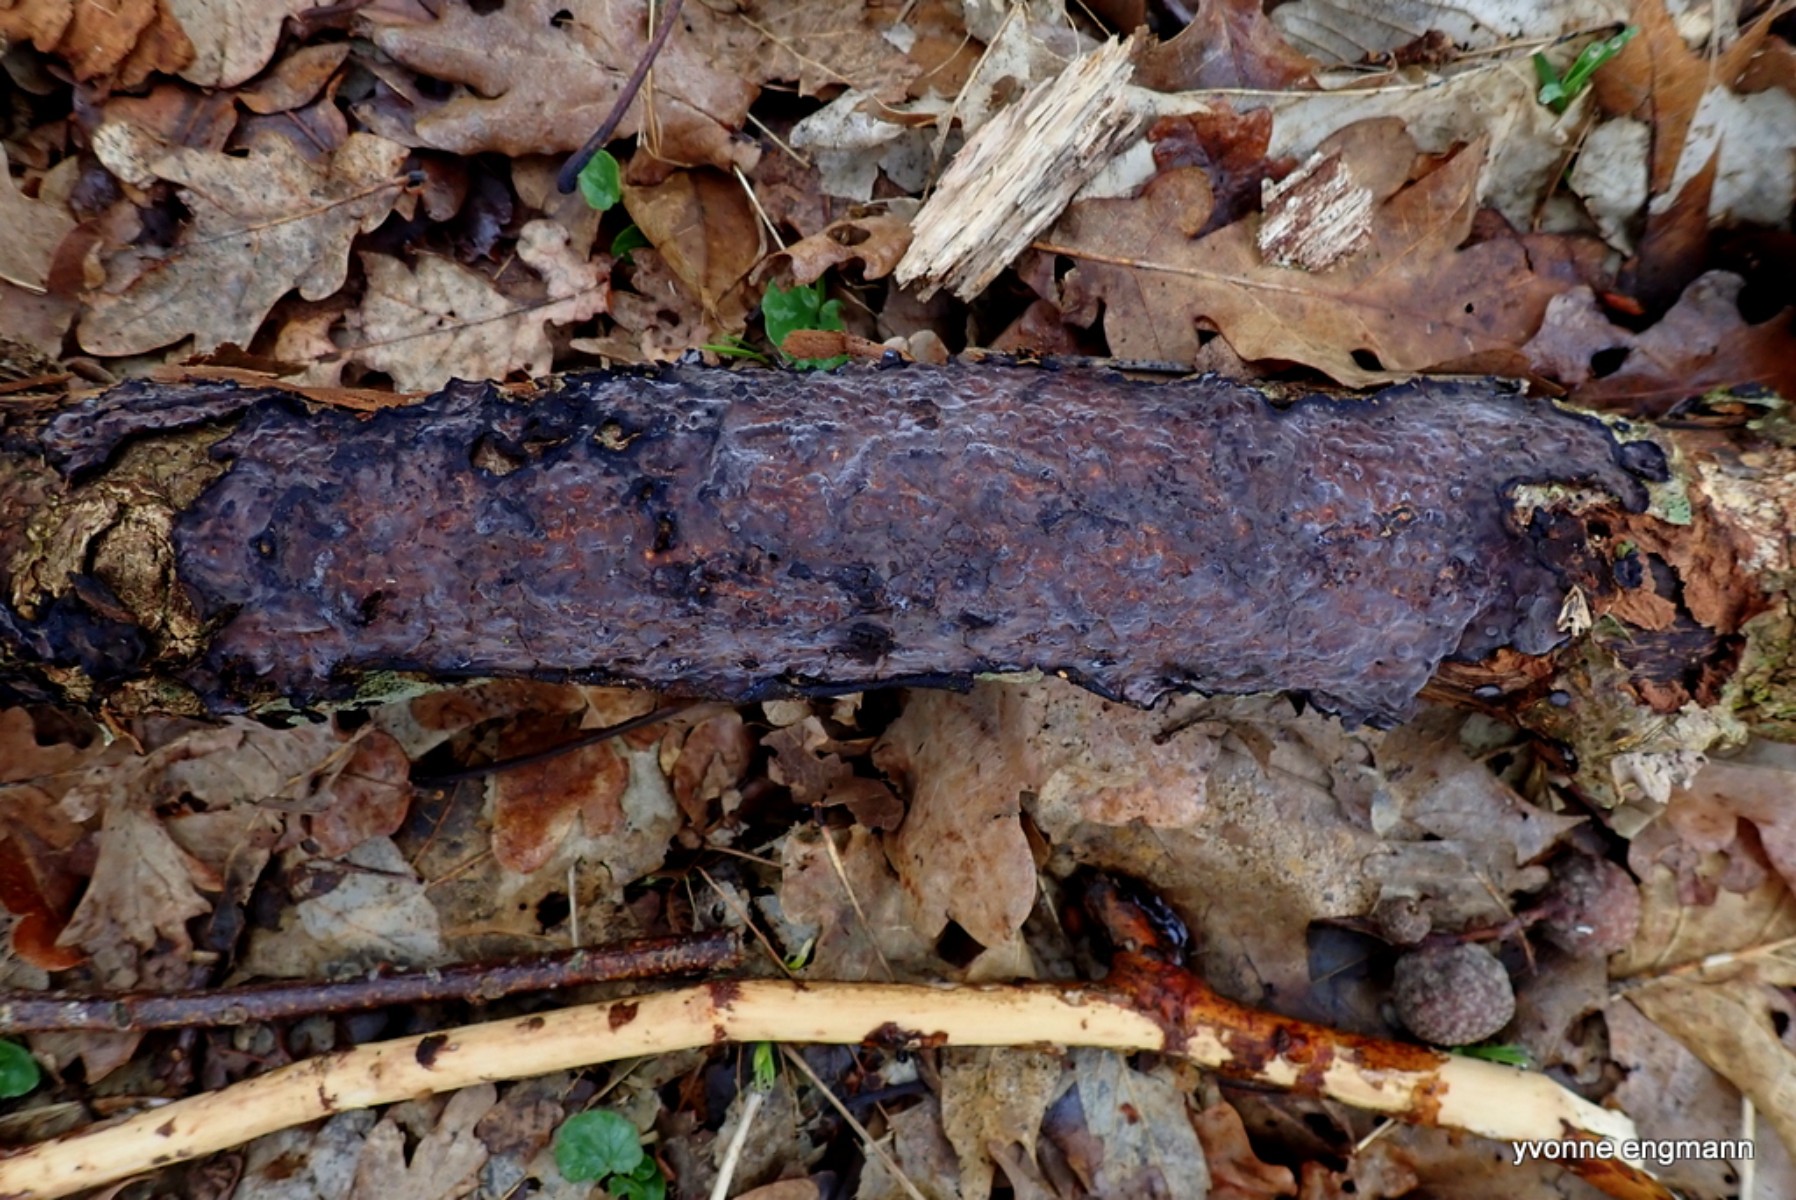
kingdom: Fungi
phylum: Basidiomycota
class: Agaricomycetes
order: Russulales
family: Peniophoraceae
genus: Peniophora
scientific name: Peniophora quercina
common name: ege-voksskind
